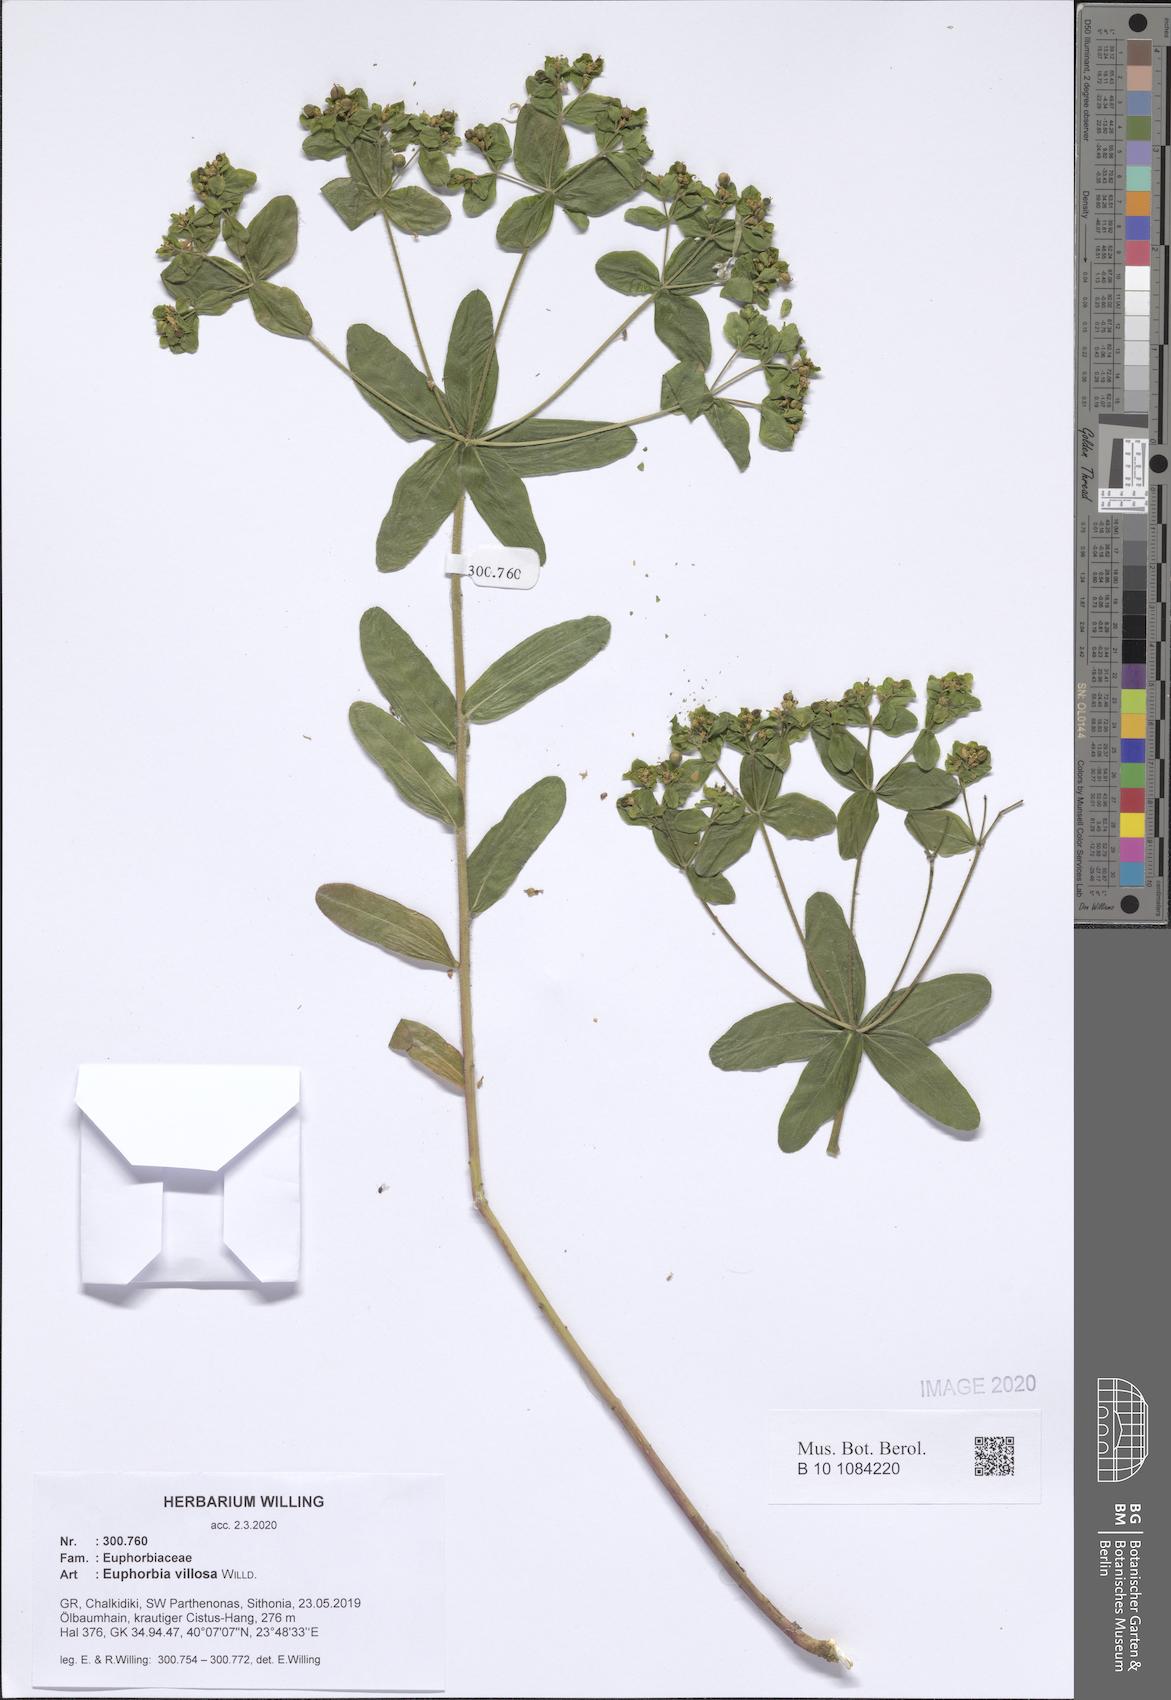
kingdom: Plantae
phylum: Tracheophyta
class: Magnoliopsida
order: Malpighiales
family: Euphorbiaceae
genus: Euphorbia
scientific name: Euphorbia illirica
